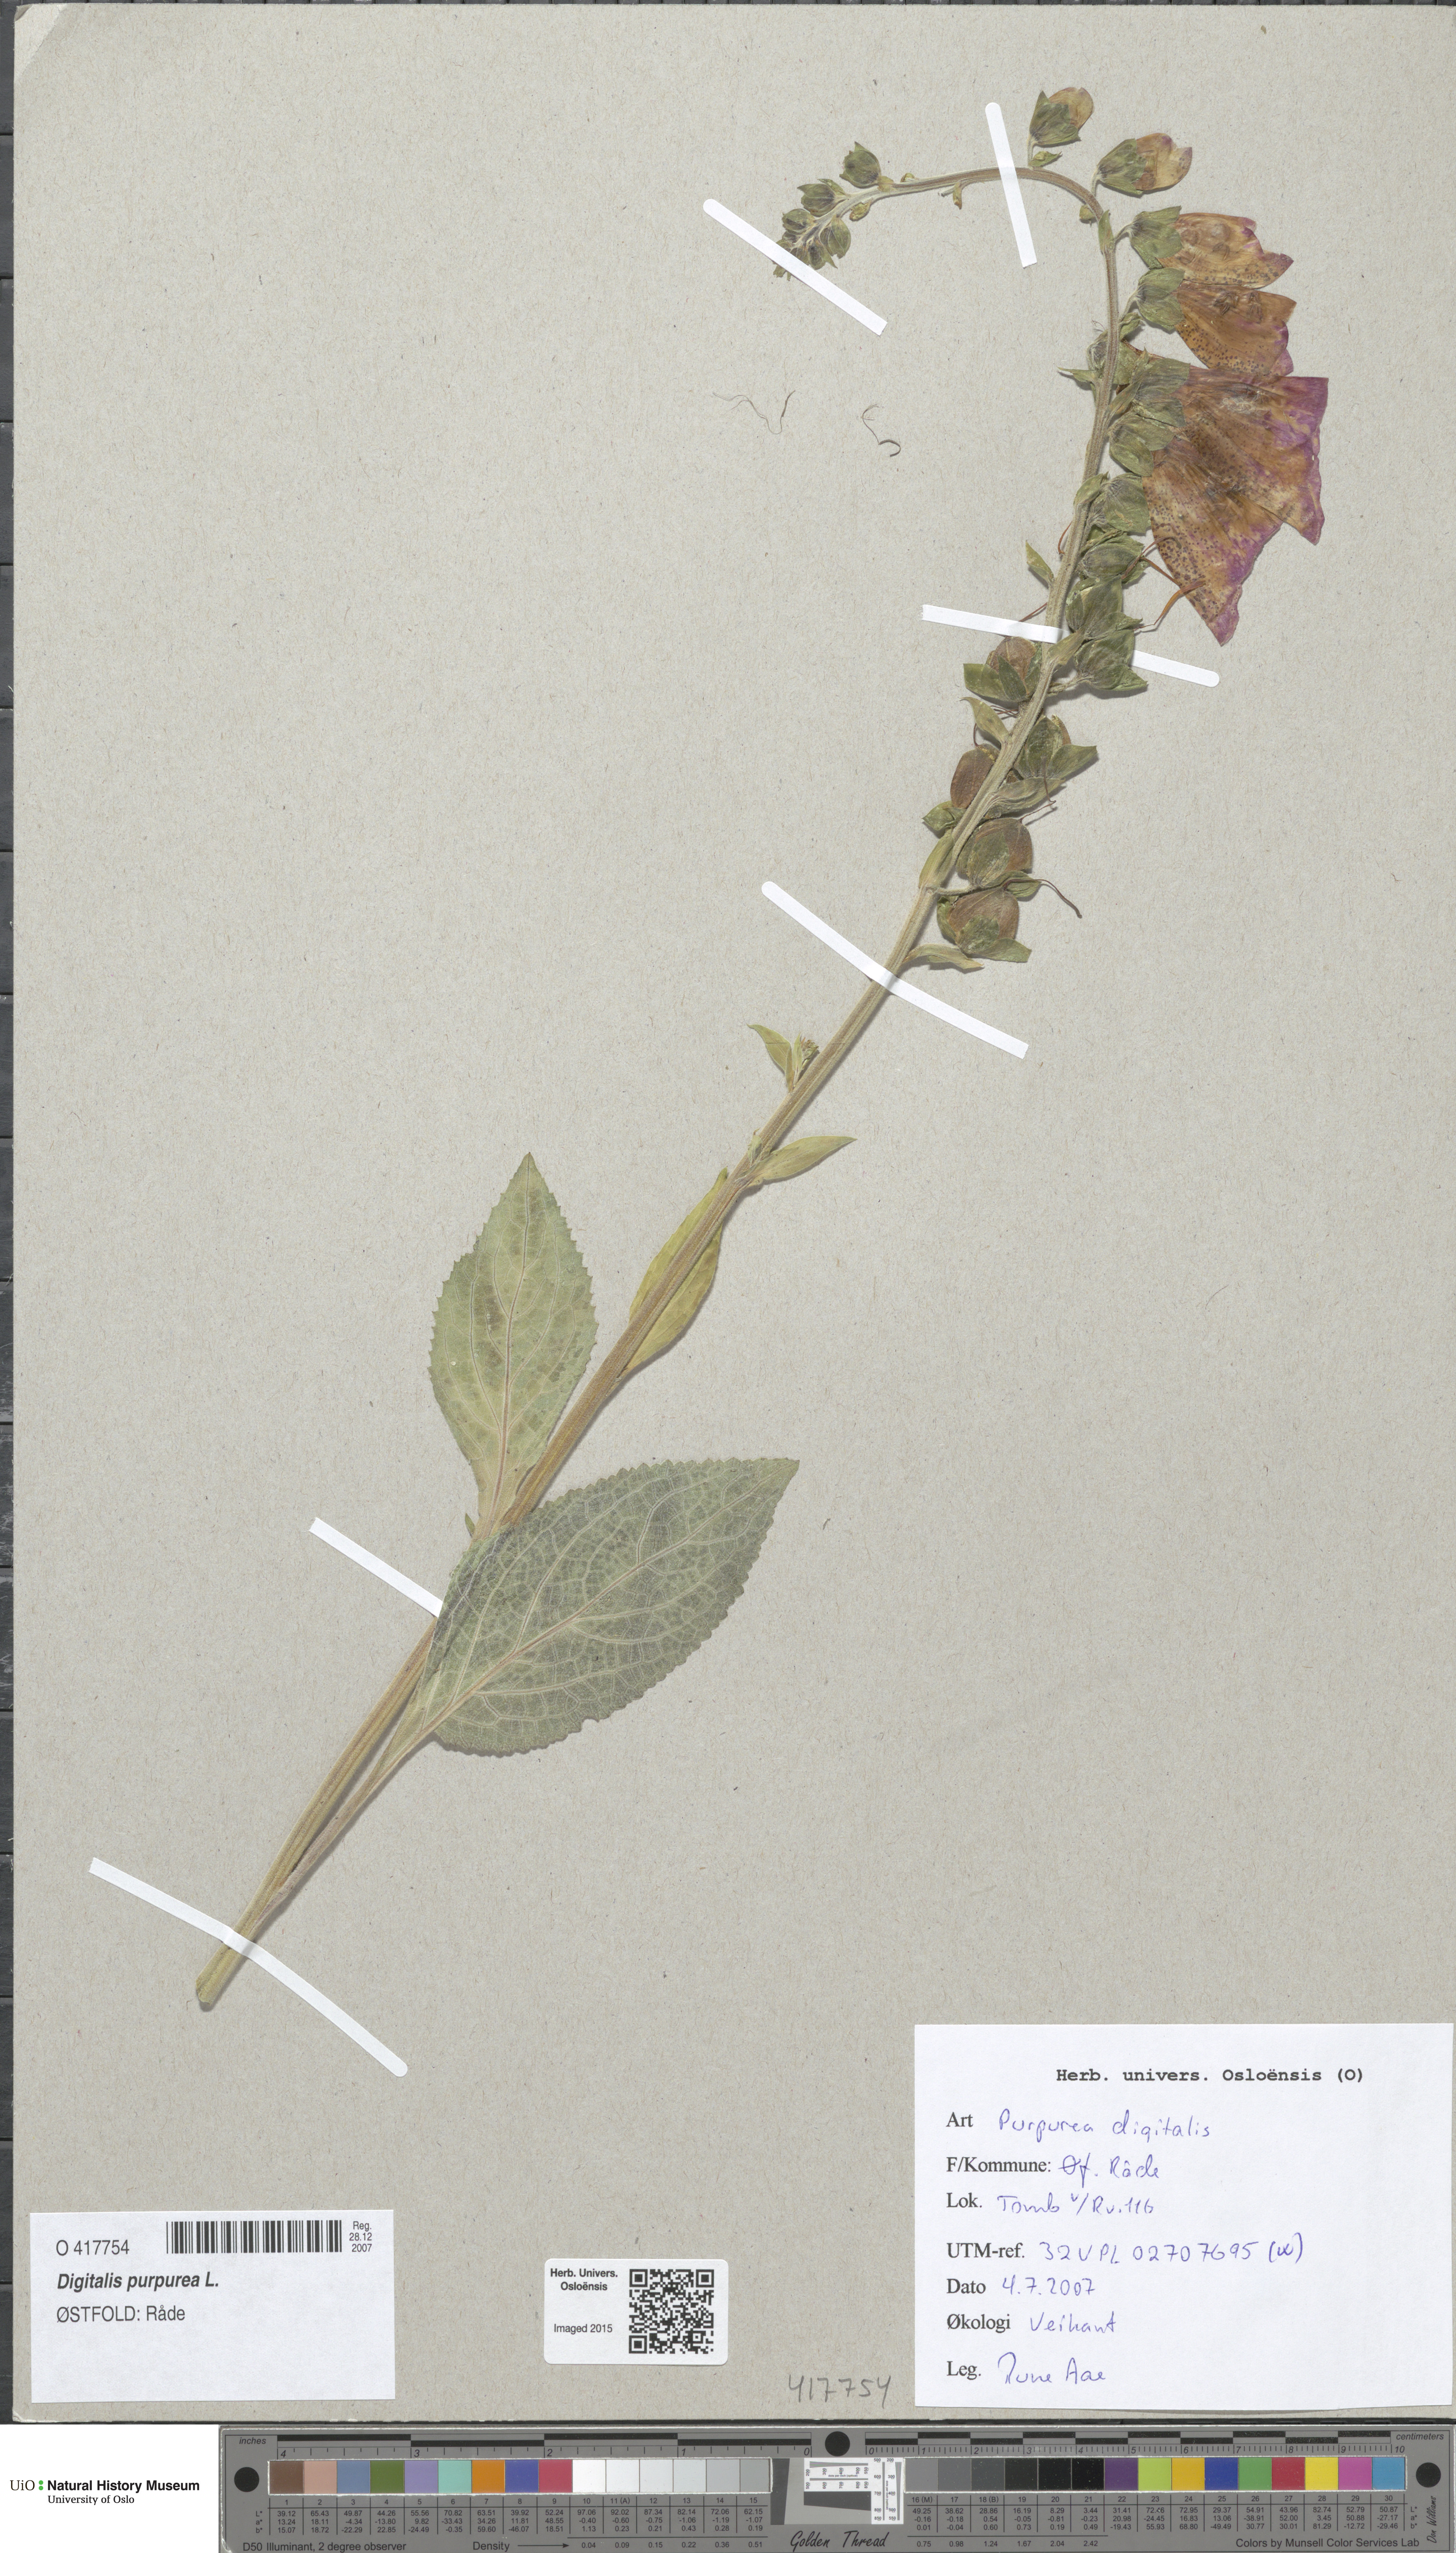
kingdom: Plantae
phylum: Tracheophyta
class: Magnoliopsida
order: Lamiales
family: Plantaginaceae
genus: Digitalis
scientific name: Digitalis purpurea
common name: Foxglove
